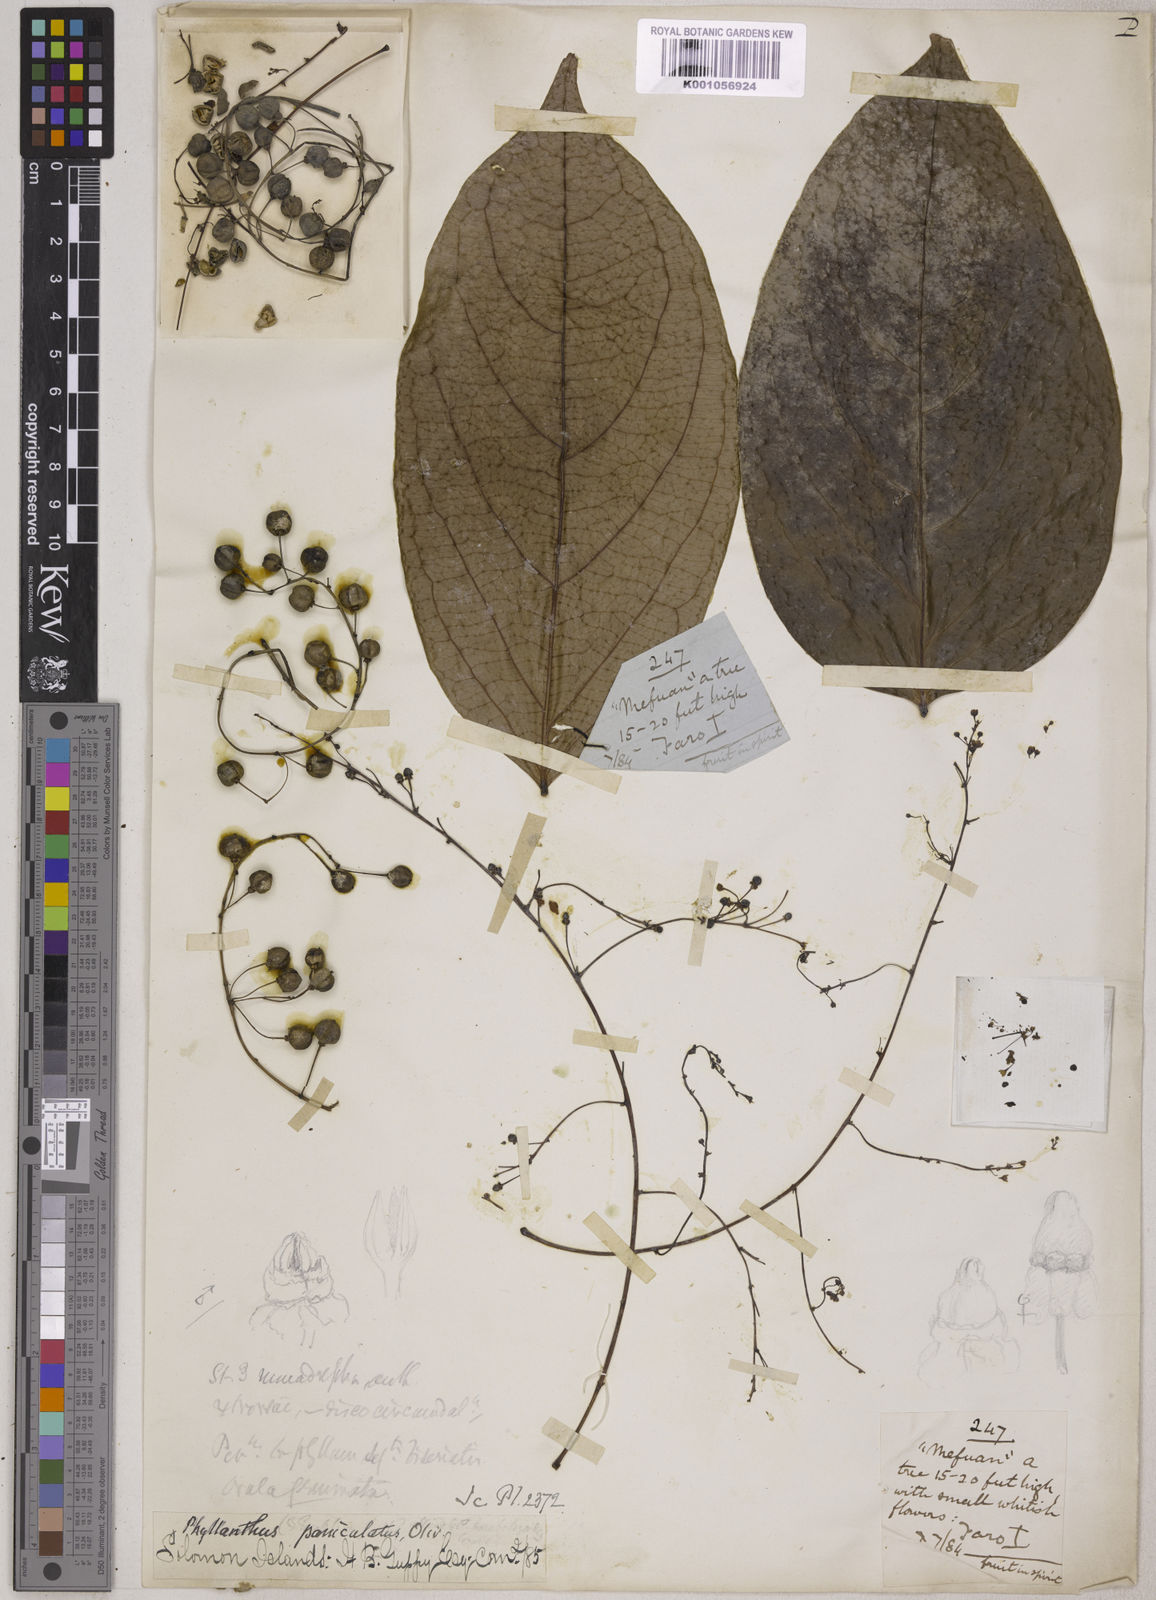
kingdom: Plantae
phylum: Tracheophyta
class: Magnoliopsida
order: Malpighiales
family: Phyllanthaceae
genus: Phyllanthus
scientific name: Phyllanthus clamboides
